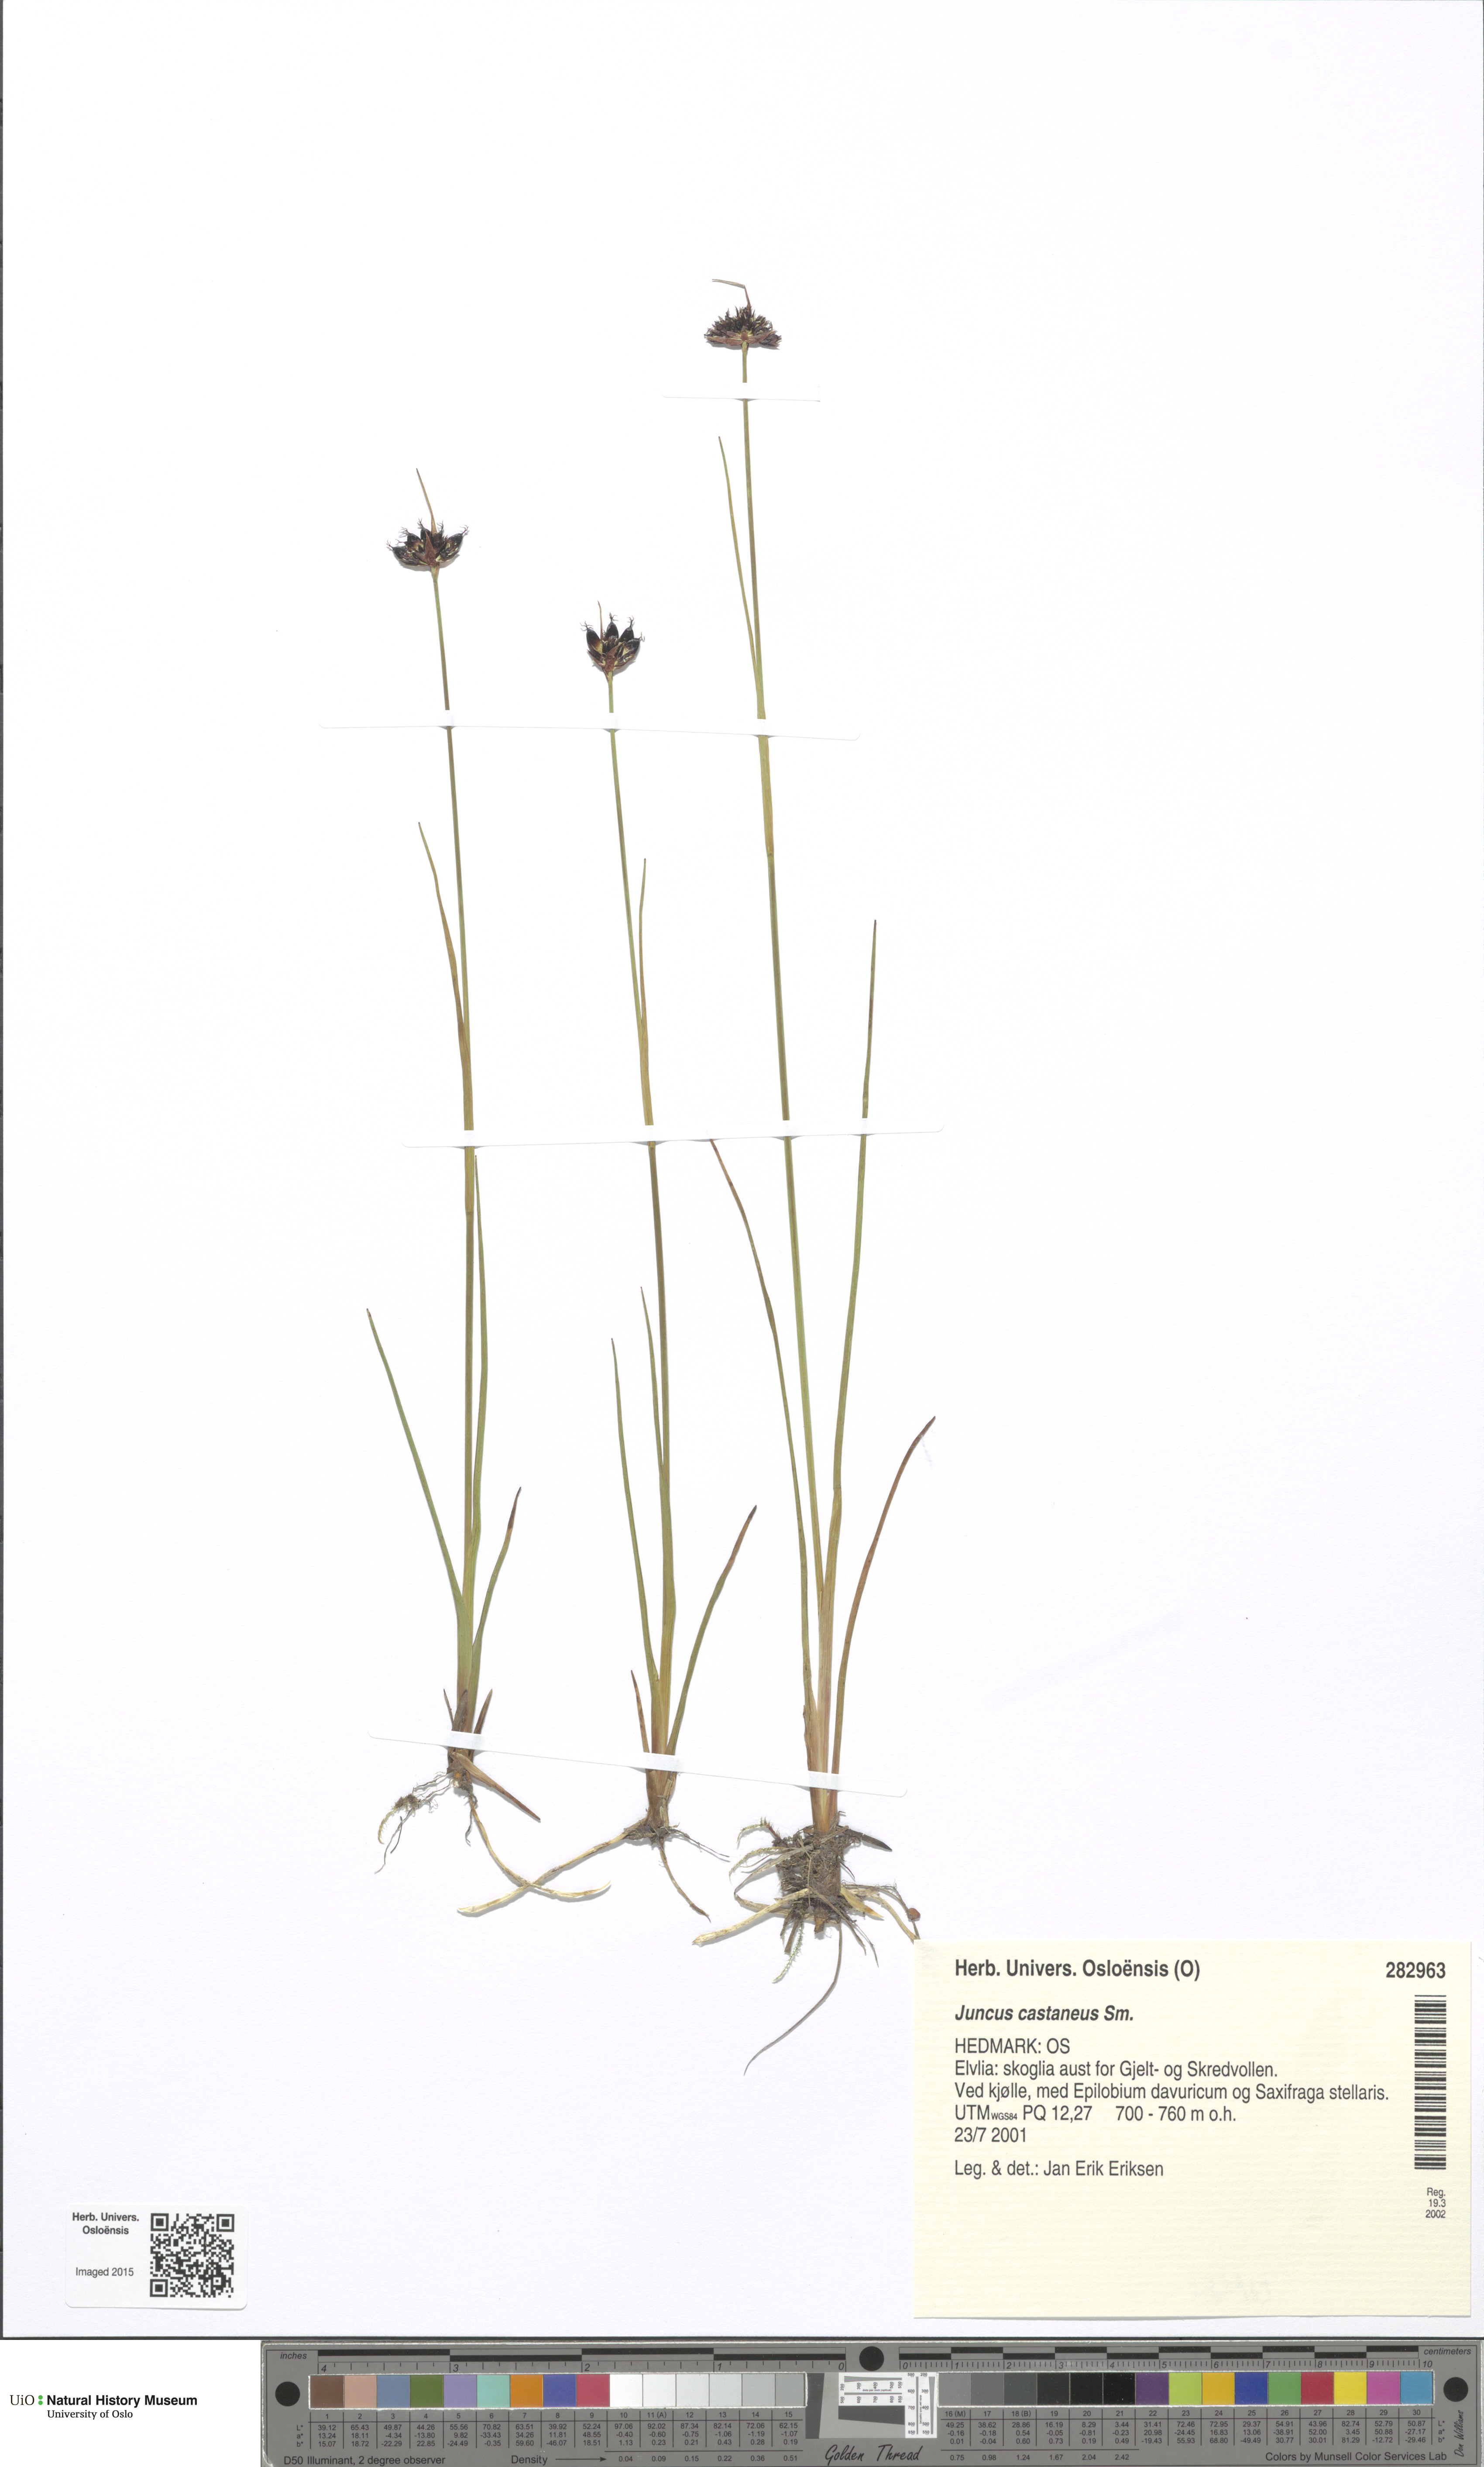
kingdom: Plantae
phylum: Tracheophyta
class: Liliopsida
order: Poales
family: Juncaceae
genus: Juncus
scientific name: Juncus castaneus
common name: Chestnut rush
